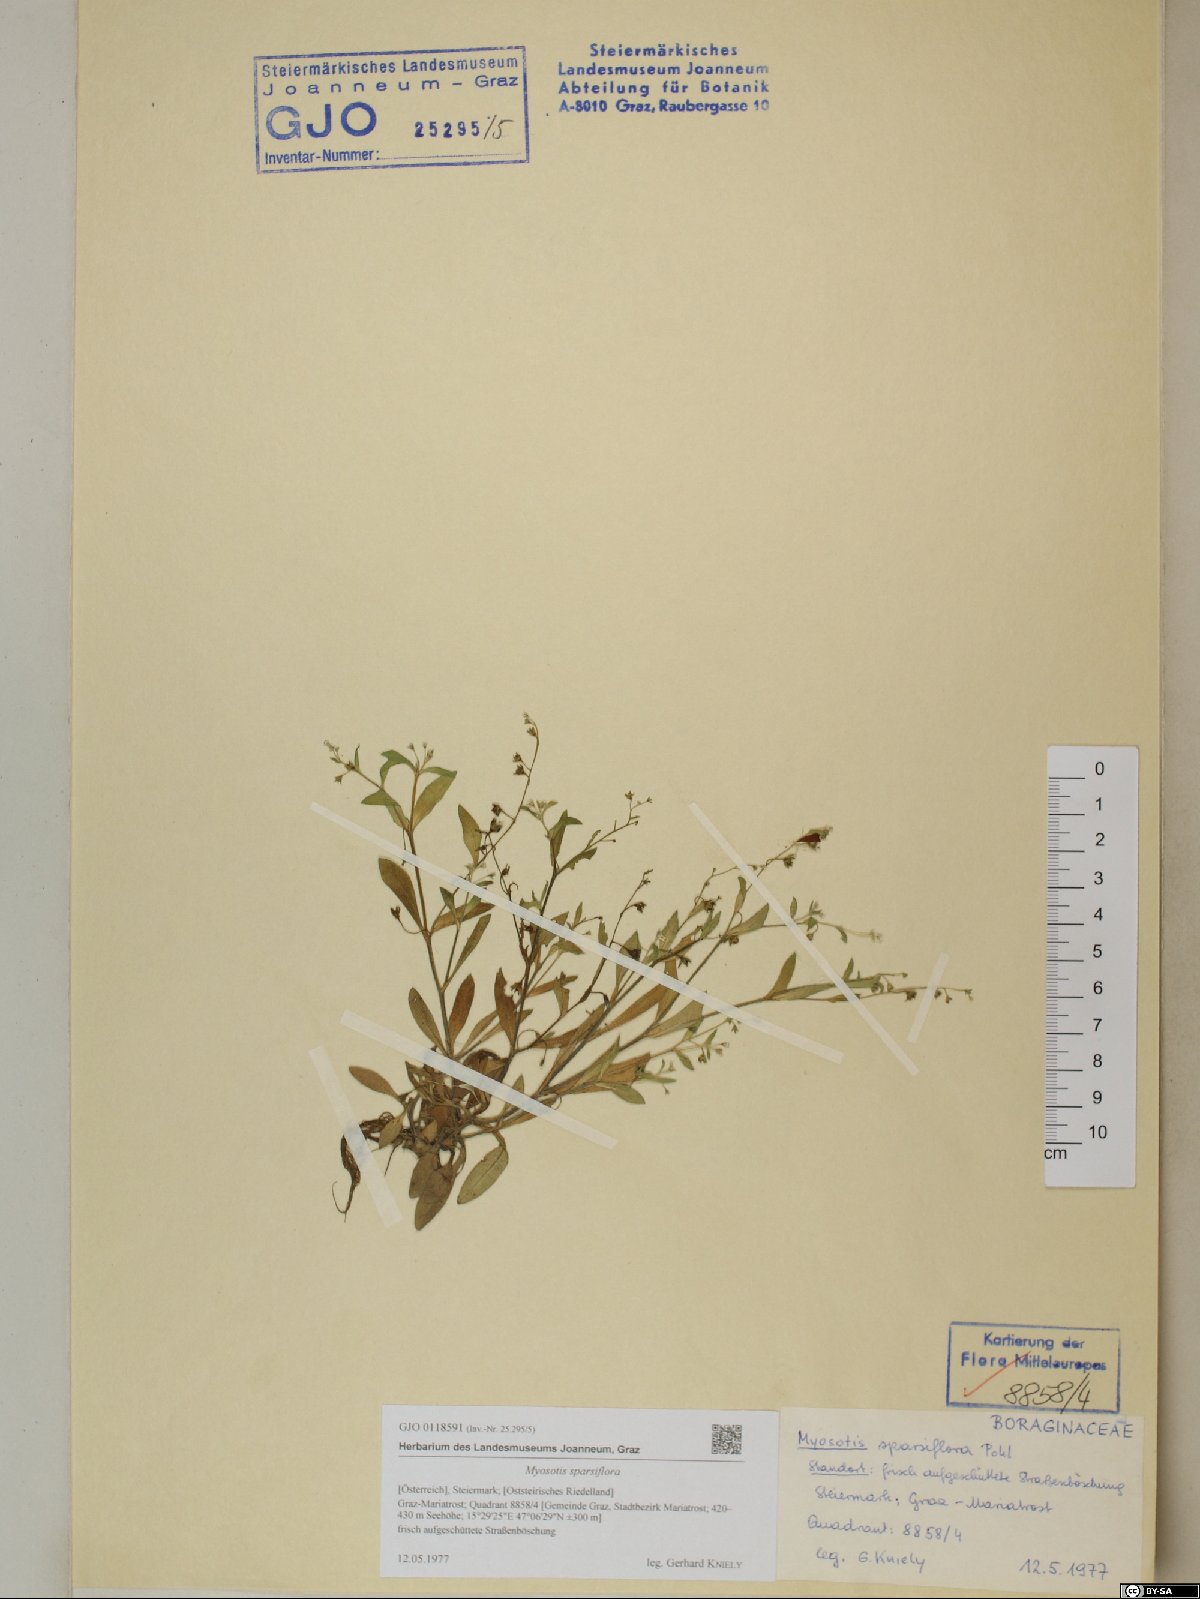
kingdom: Plantae
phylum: Tracheophyta
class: Magnoliopsida
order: Boraginales
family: Boraginaceae
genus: Myosotis
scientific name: Myosotis sparsiflora
